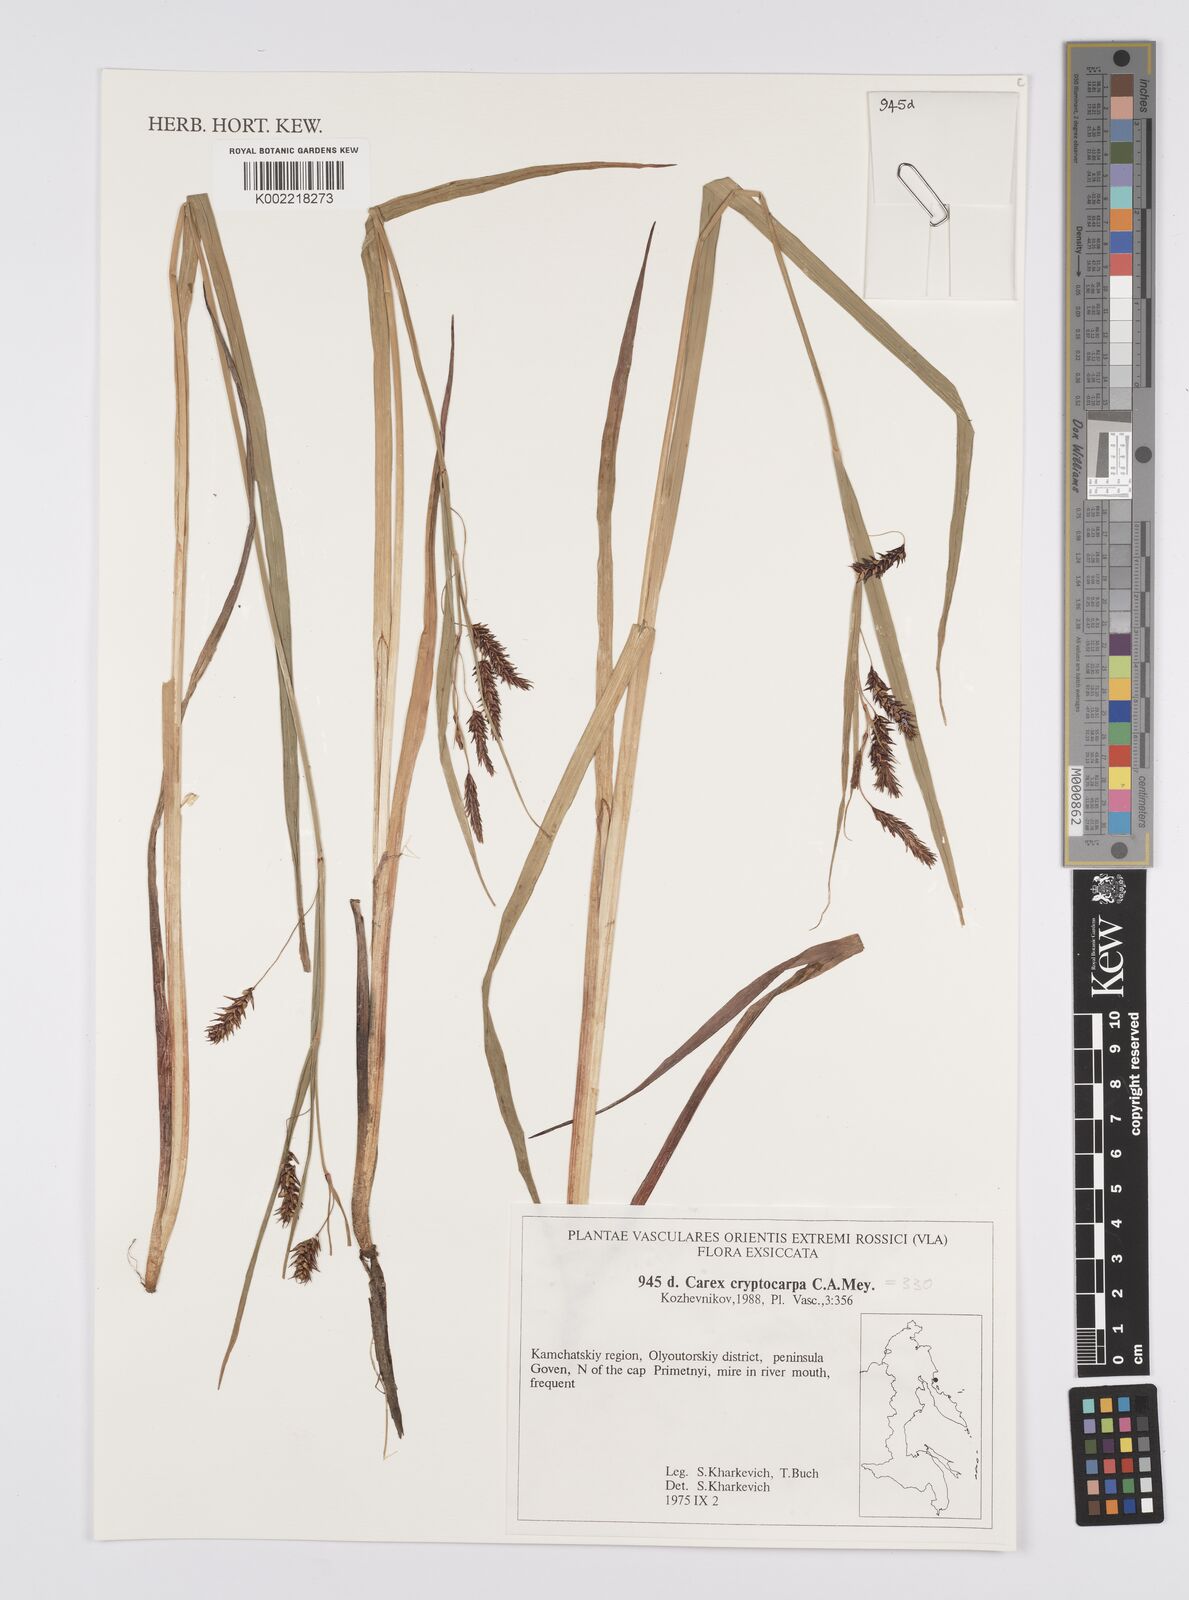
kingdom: Plantae
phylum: Tracheophyta
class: Liliopsida
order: Poales
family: Cyperaceae
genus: Carex
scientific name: Carex lyngbyei
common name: Lyngbye's sedge
